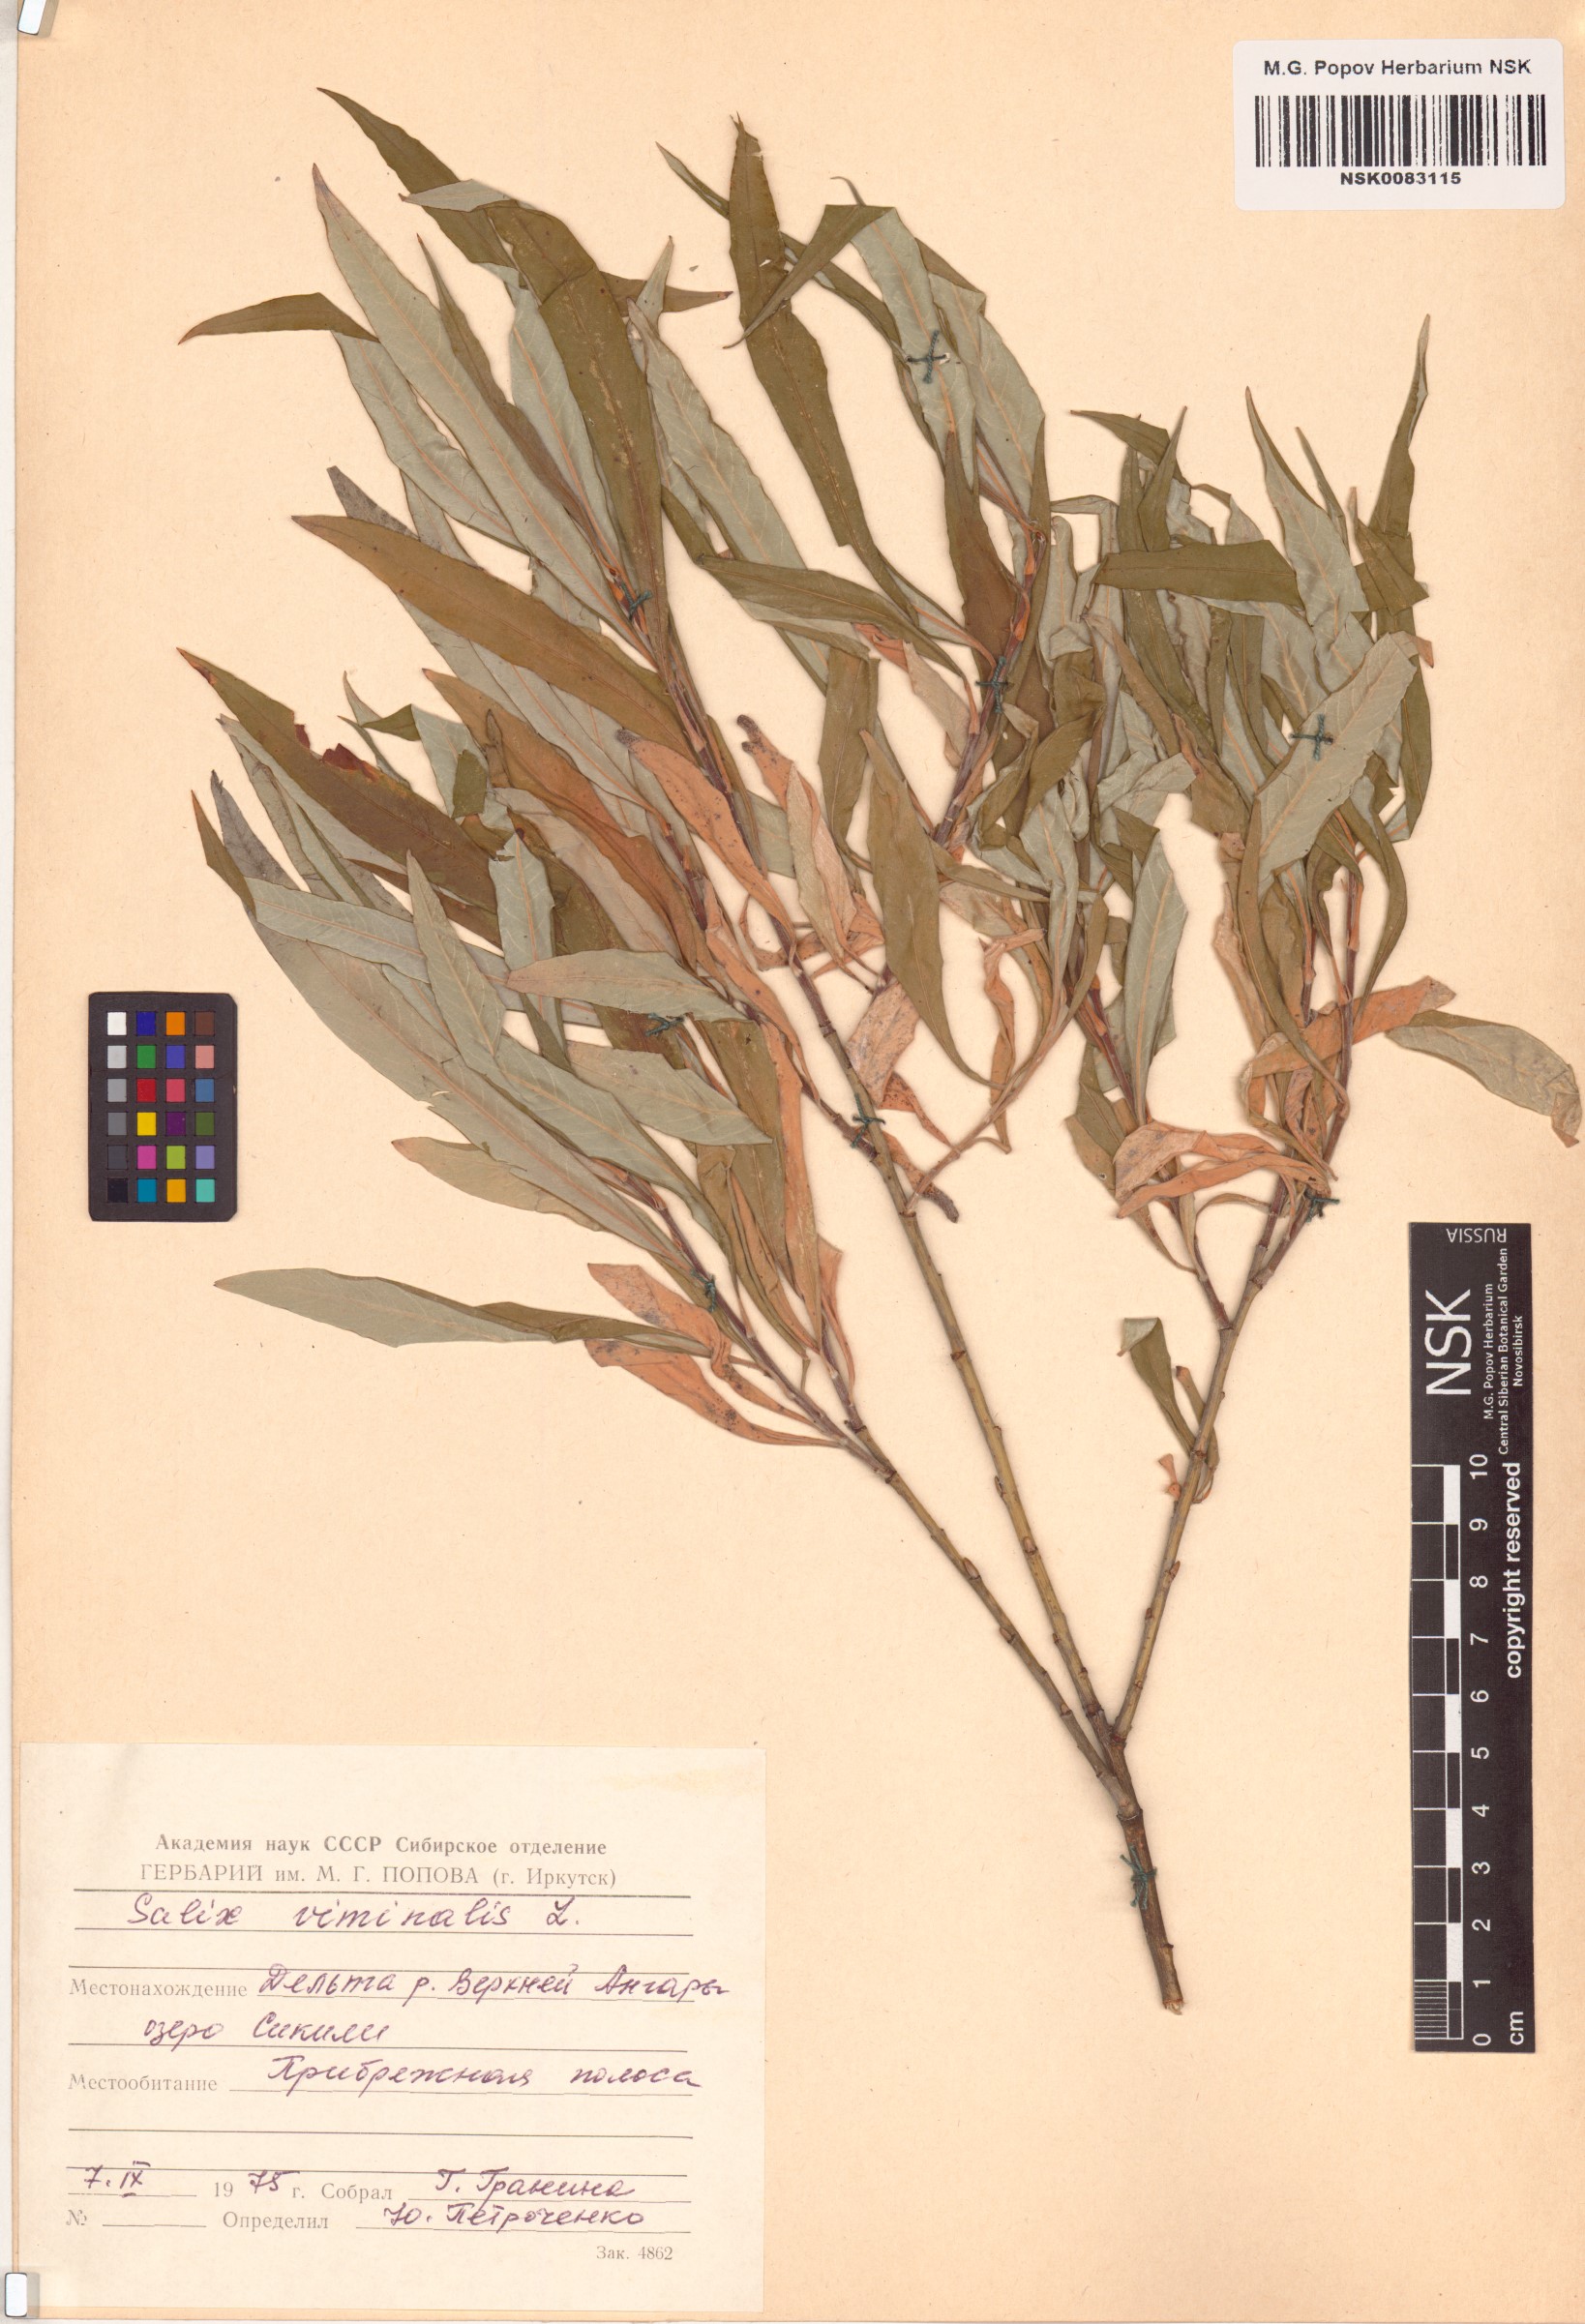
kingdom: Plantae
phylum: Tracheophyta
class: Magnoliopsida
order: Malpighiales
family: Salicaceae
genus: Salix
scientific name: Salix viminalis
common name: Osier
